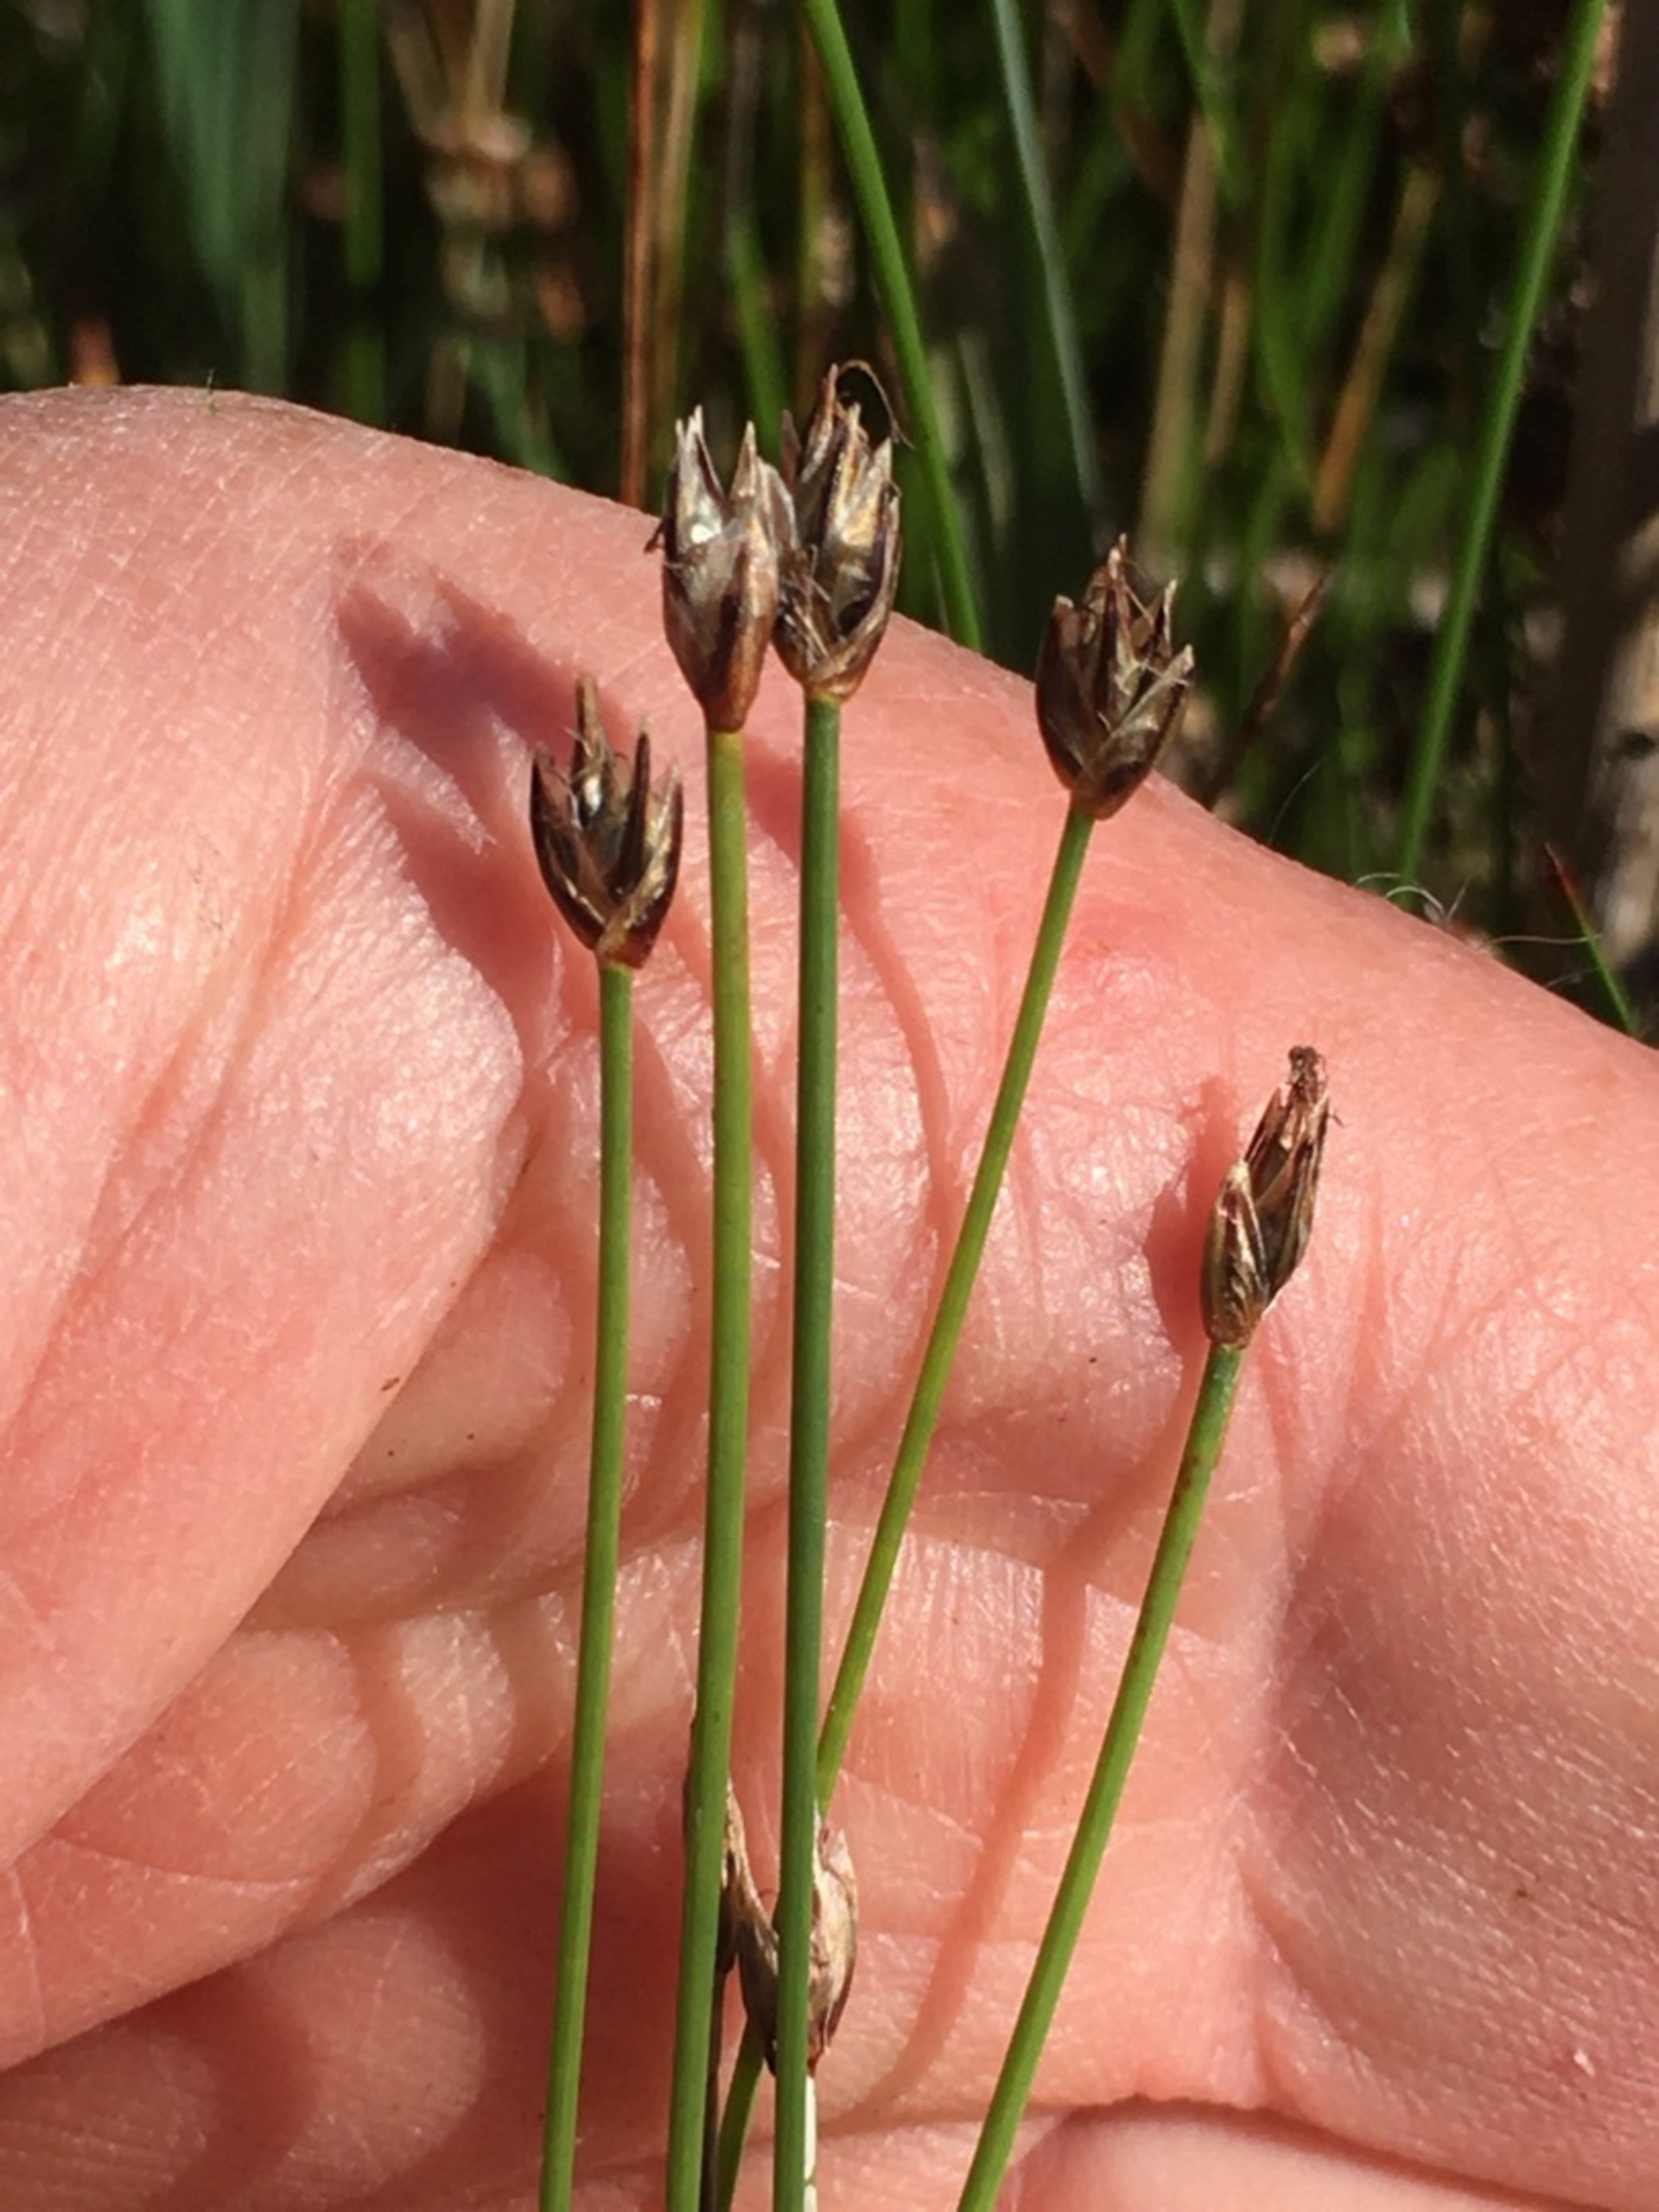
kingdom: Plantae
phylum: Tracheophyta
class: Liliopsida
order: Poales
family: Cyperaceae
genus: Eleocharis
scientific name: Eleocharis quinqueflora
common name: Fåblomstret kogleaks
